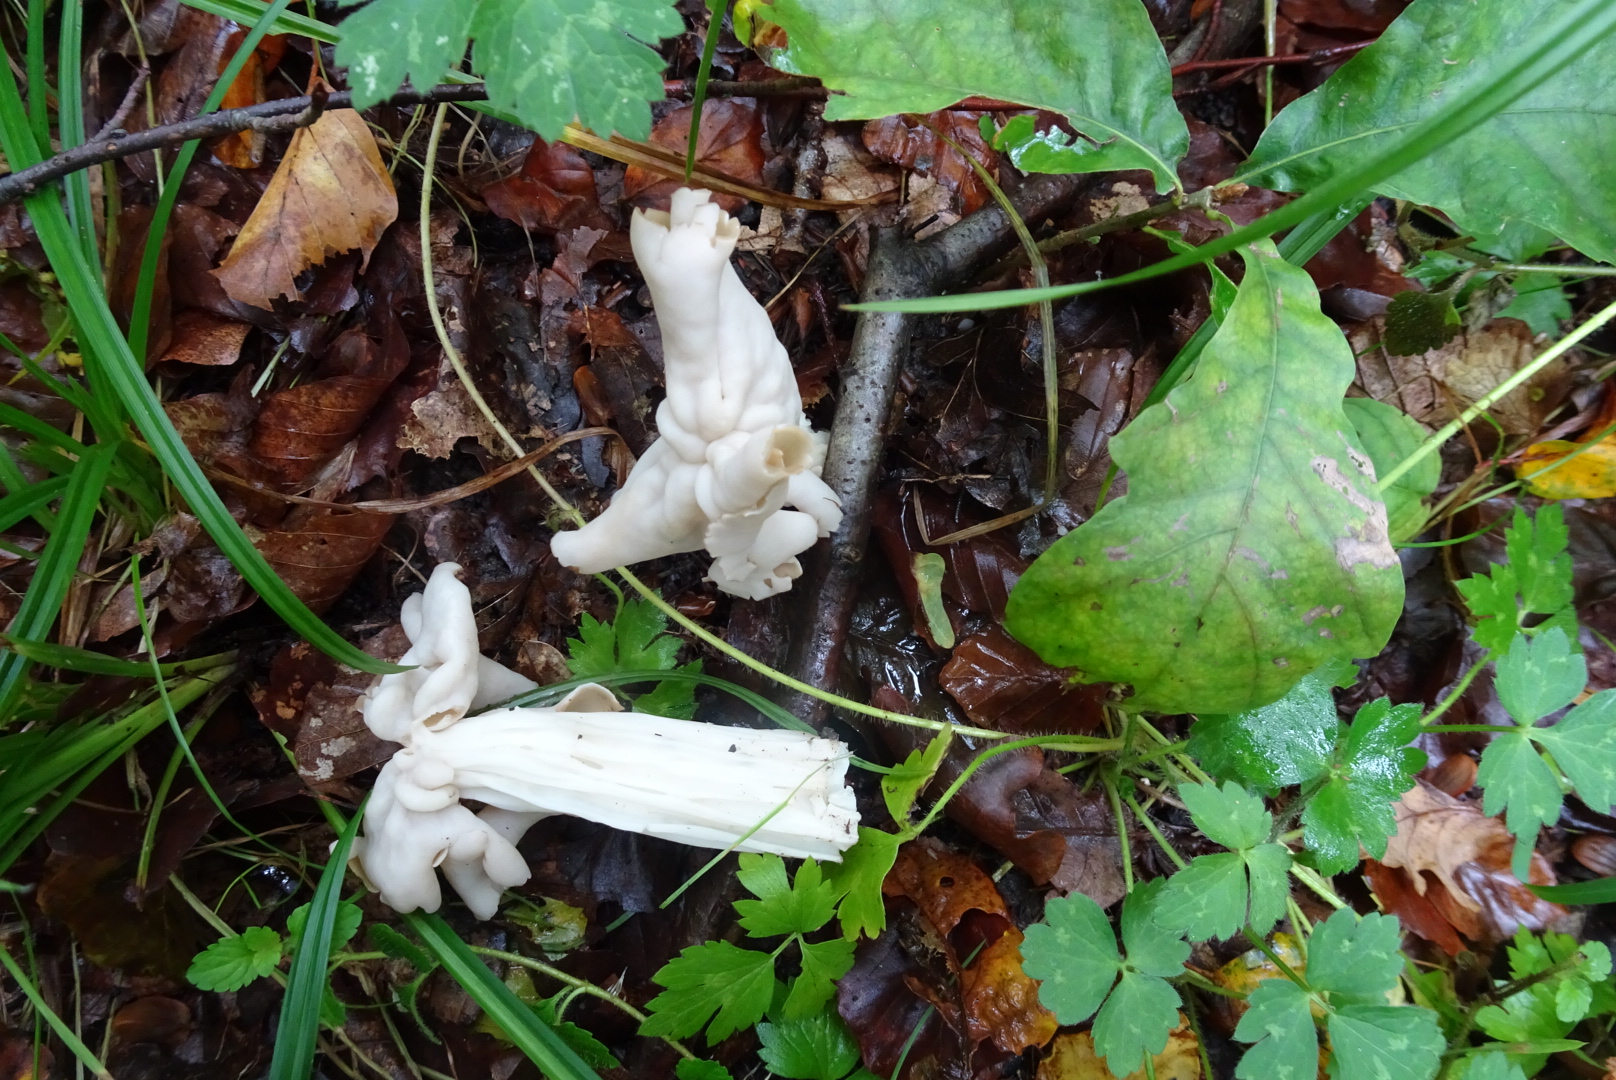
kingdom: Fungi
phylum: Ascomycota
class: Pezizomycetes
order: Pezizales
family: Helvellaceae
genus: Helvella
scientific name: Helvella crispa
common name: kruset foldhat
